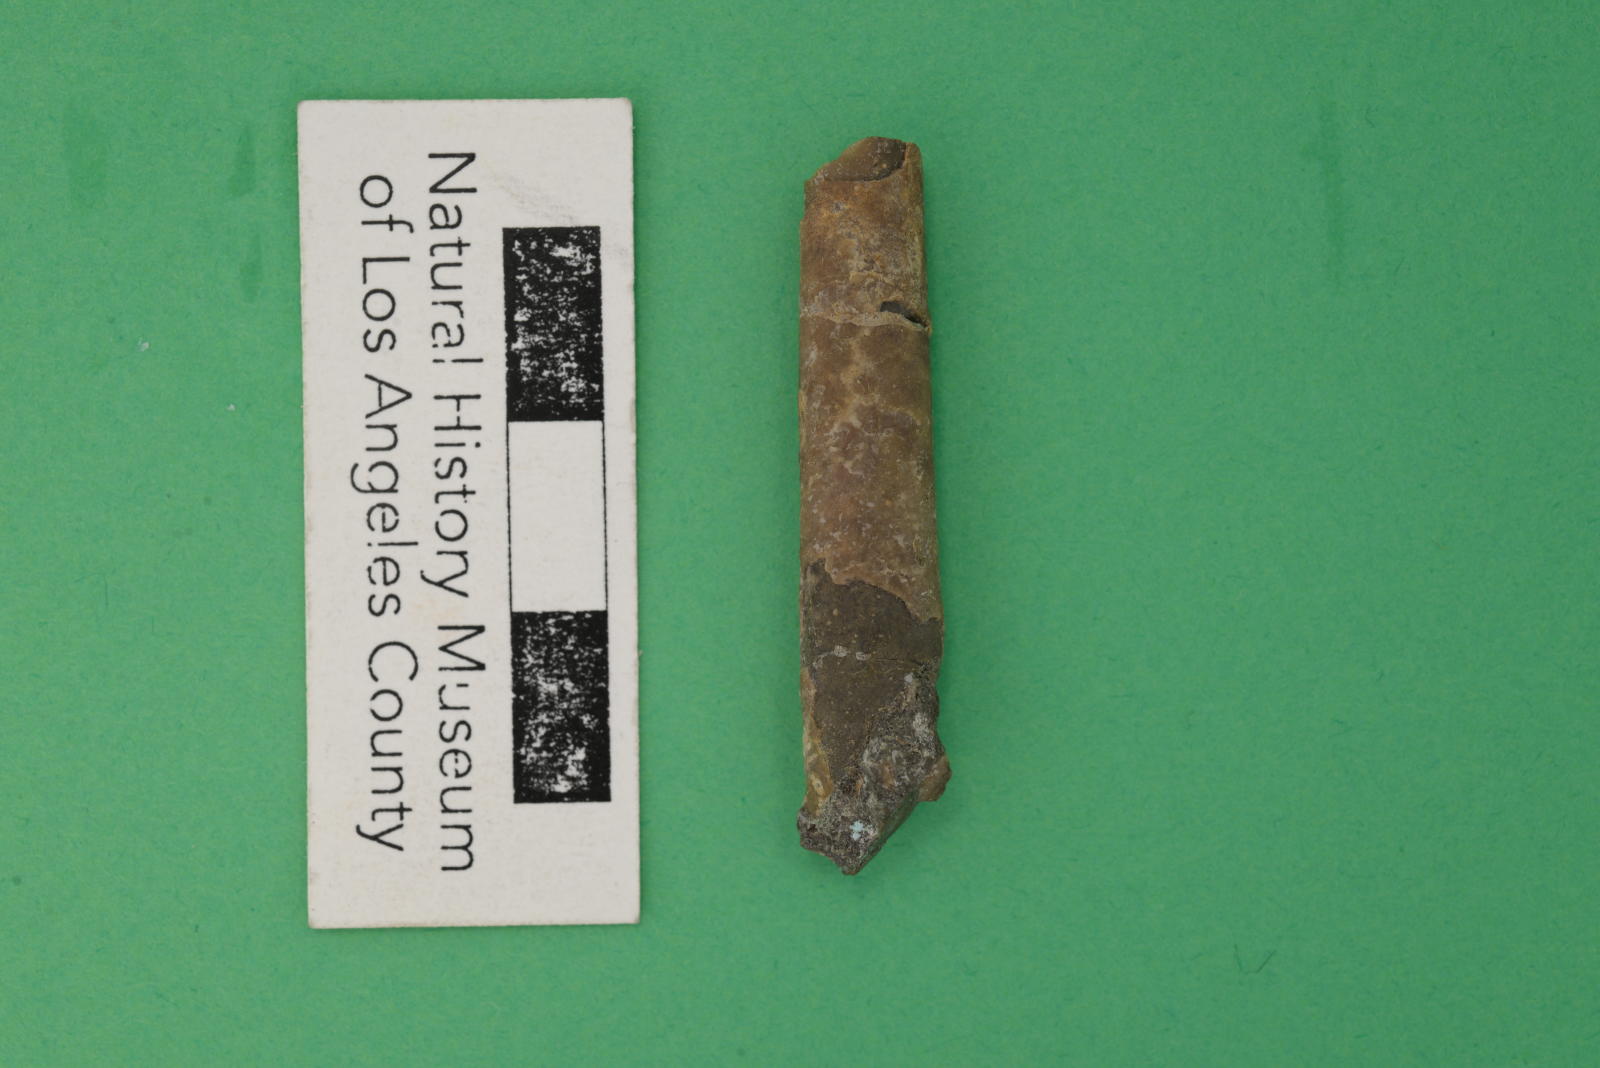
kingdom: Animalia
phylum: Mollusca
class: Cephalopoda
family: Baculitidae
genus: Sciponoceras
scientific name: Sciponoceras
